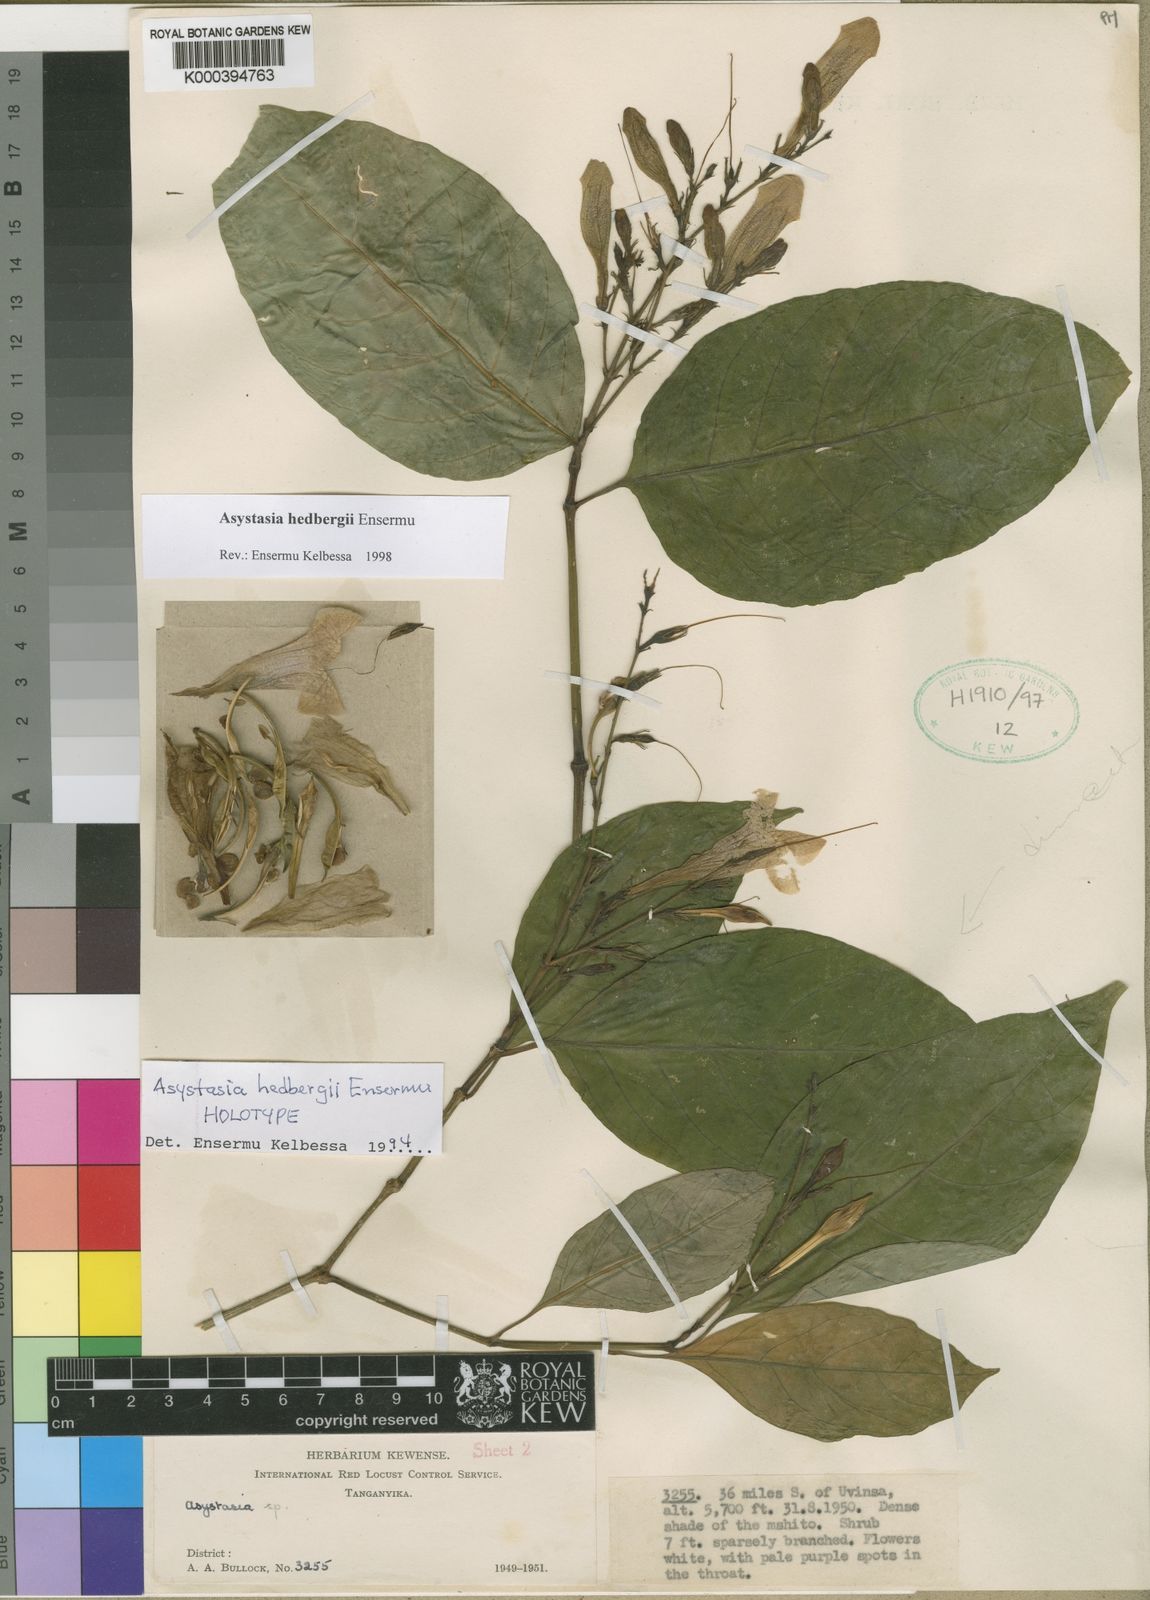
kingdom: Plantae
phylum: Tracheophyta
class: Magnoliopsida
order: Lamiales
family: Acanthaceae
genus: Asystasia
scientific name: Asystasia hedbergii
